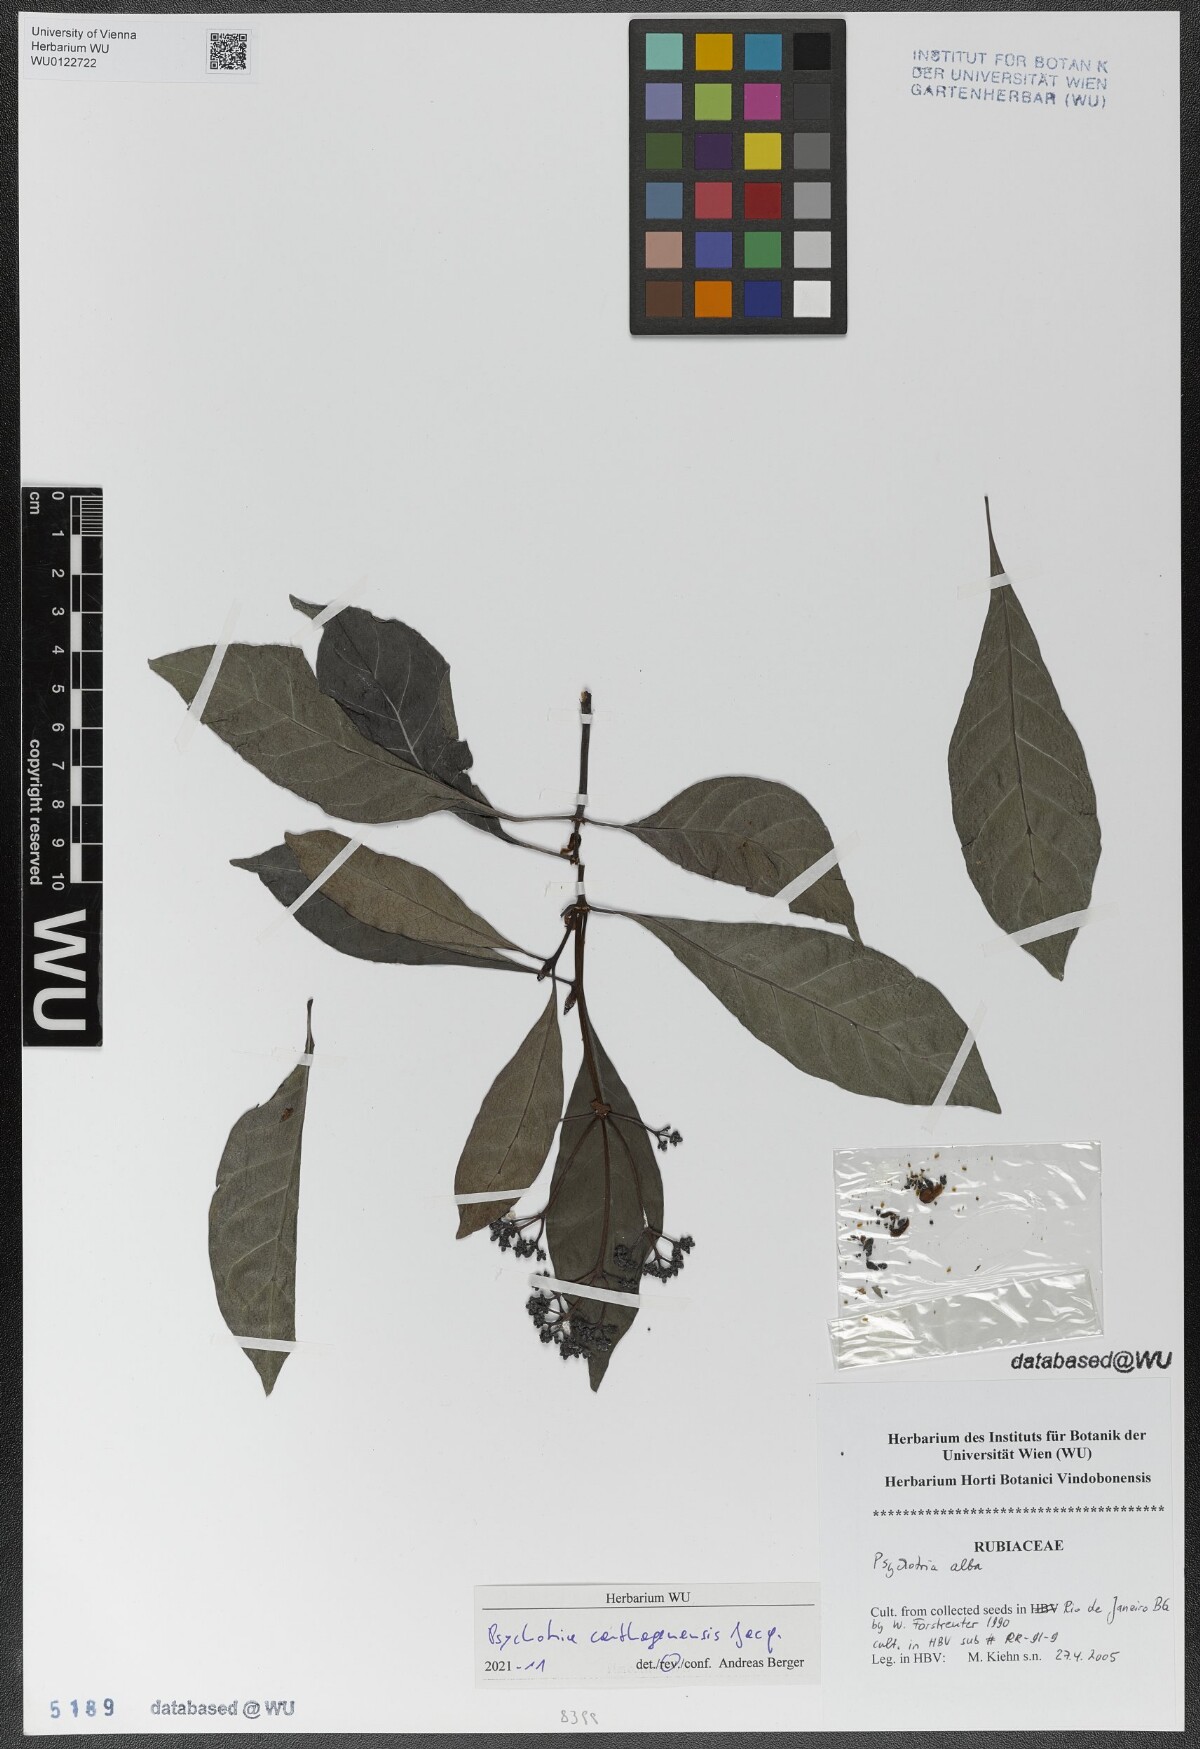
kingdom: Plantae
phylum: Tracheophyta
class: Magnoliopsida
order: Gentianales
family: Rubiaceae
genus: Psychotria
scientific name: Psychotria carthagenensis
